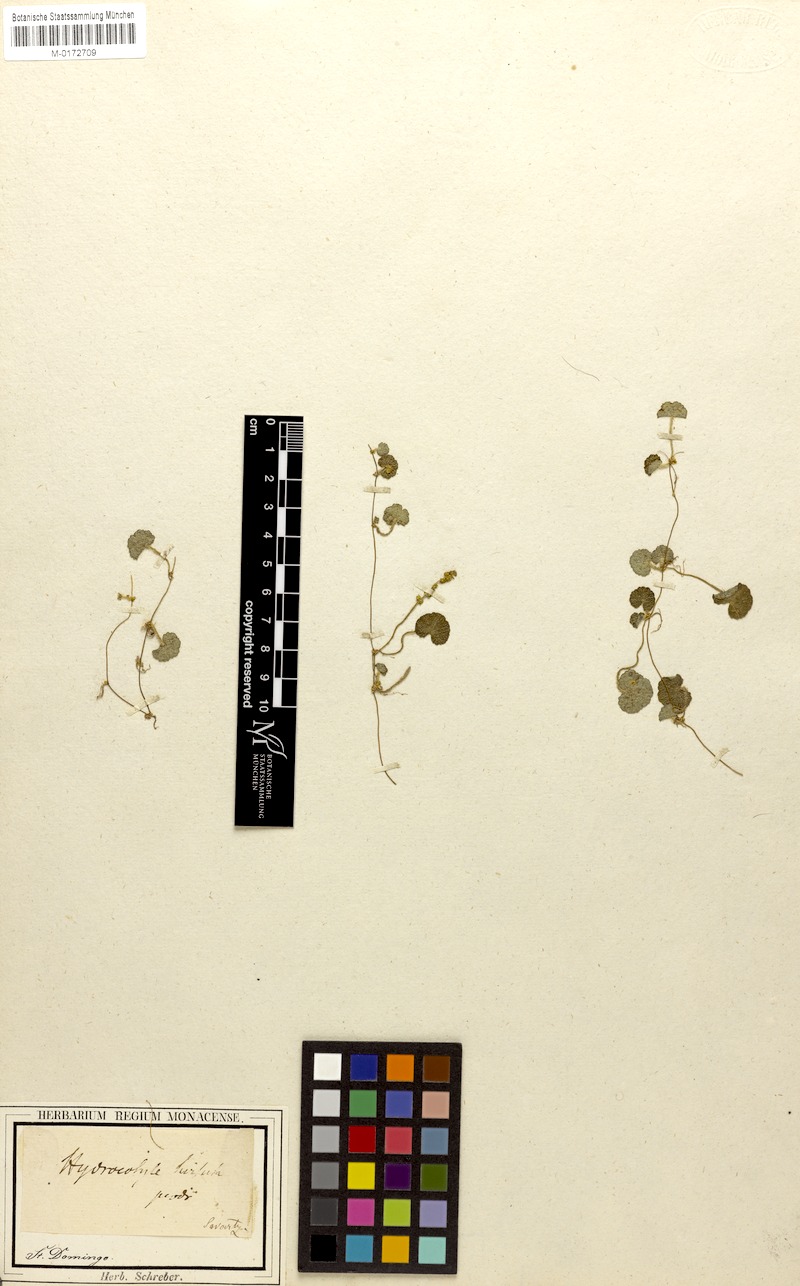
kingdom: Plantae
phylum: Tracheophyta
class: Magnoliopsida
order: Apiales
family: Araliaceae
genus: Hydrocotyle
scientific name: Hydrocotyle hirsuta
